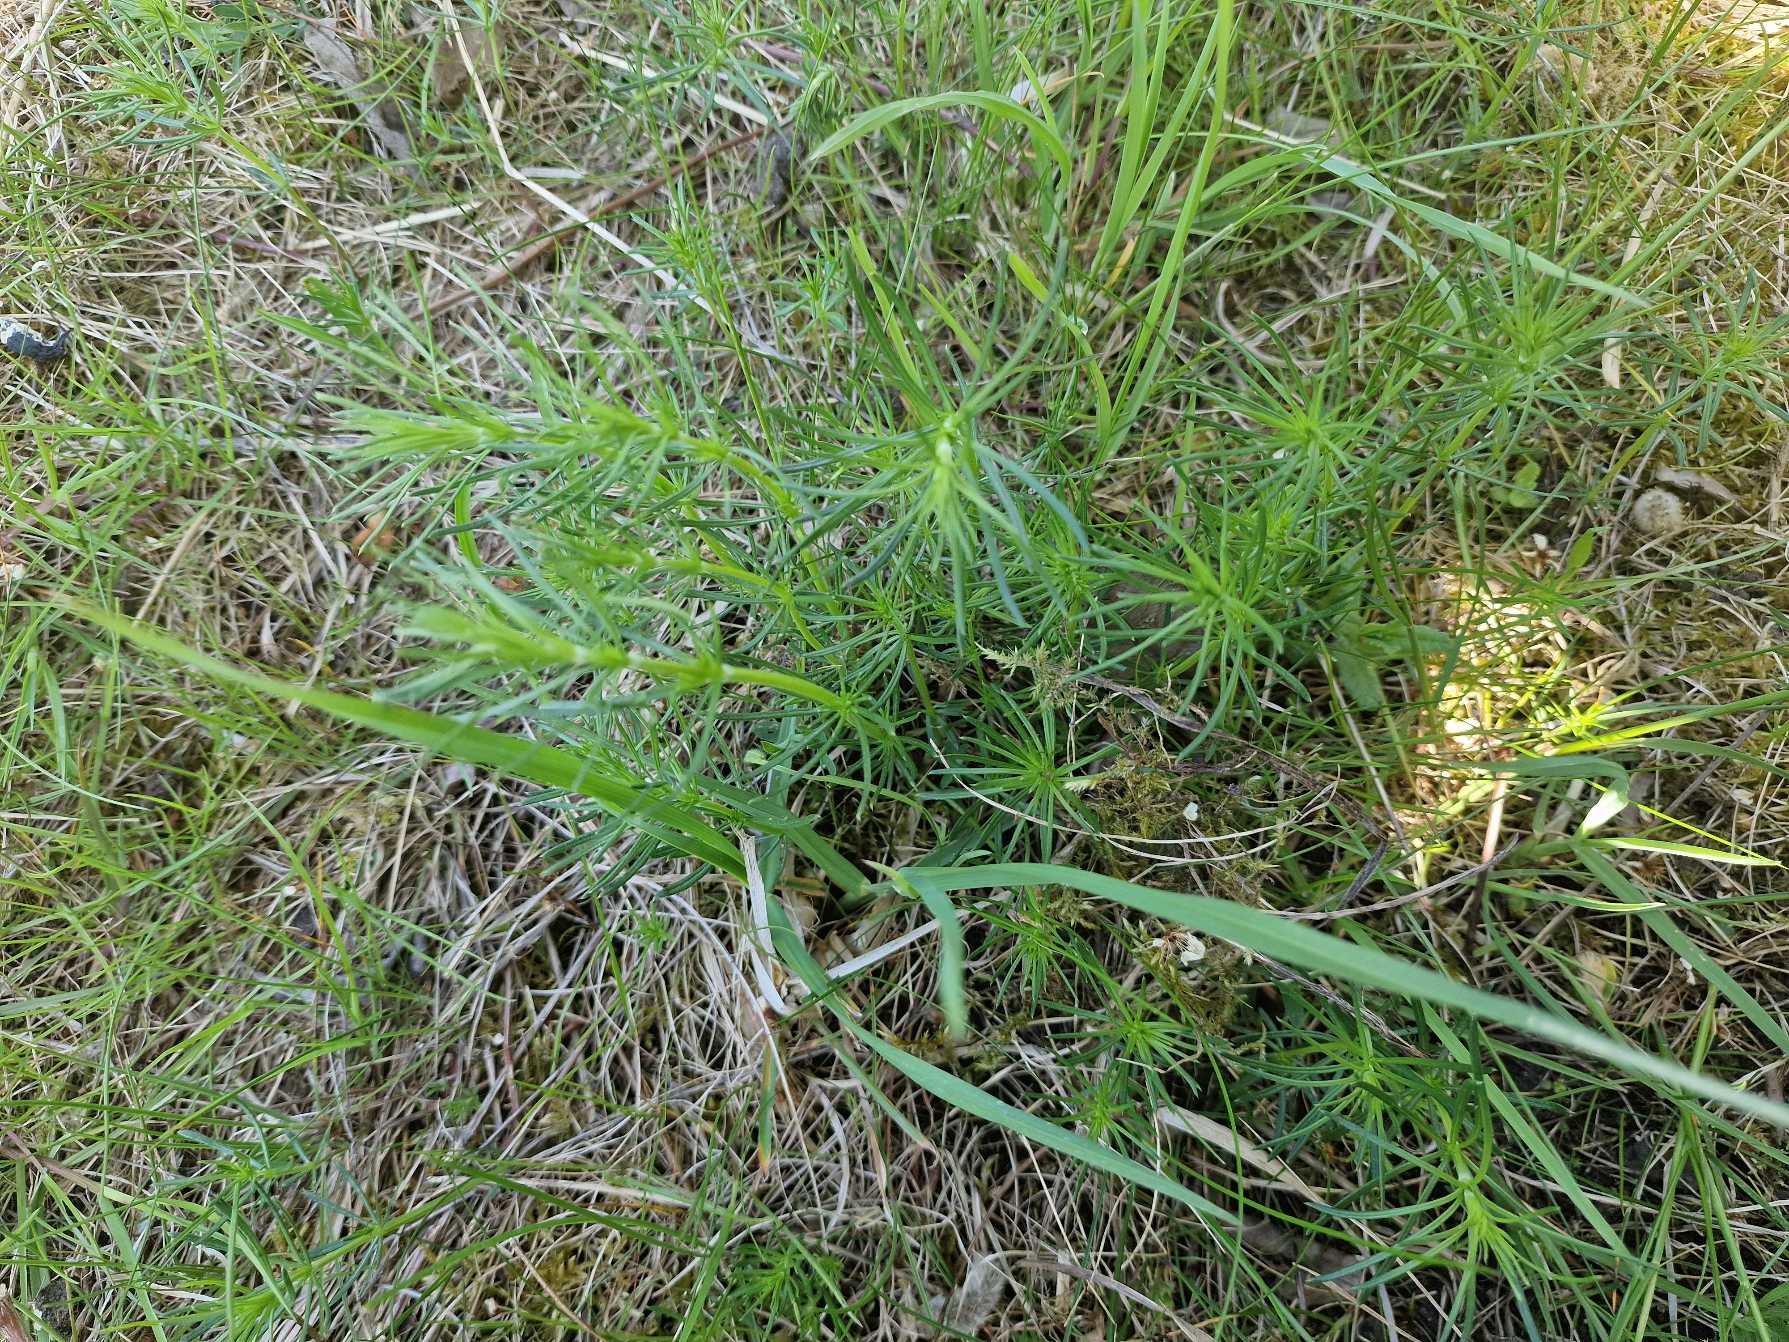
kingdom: Plantae
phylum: Tracheophyta
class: Magnoliopsida
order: Gentianales
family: Rubiaceae
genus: Galium
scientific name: Galium verum
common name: Gul snerre
